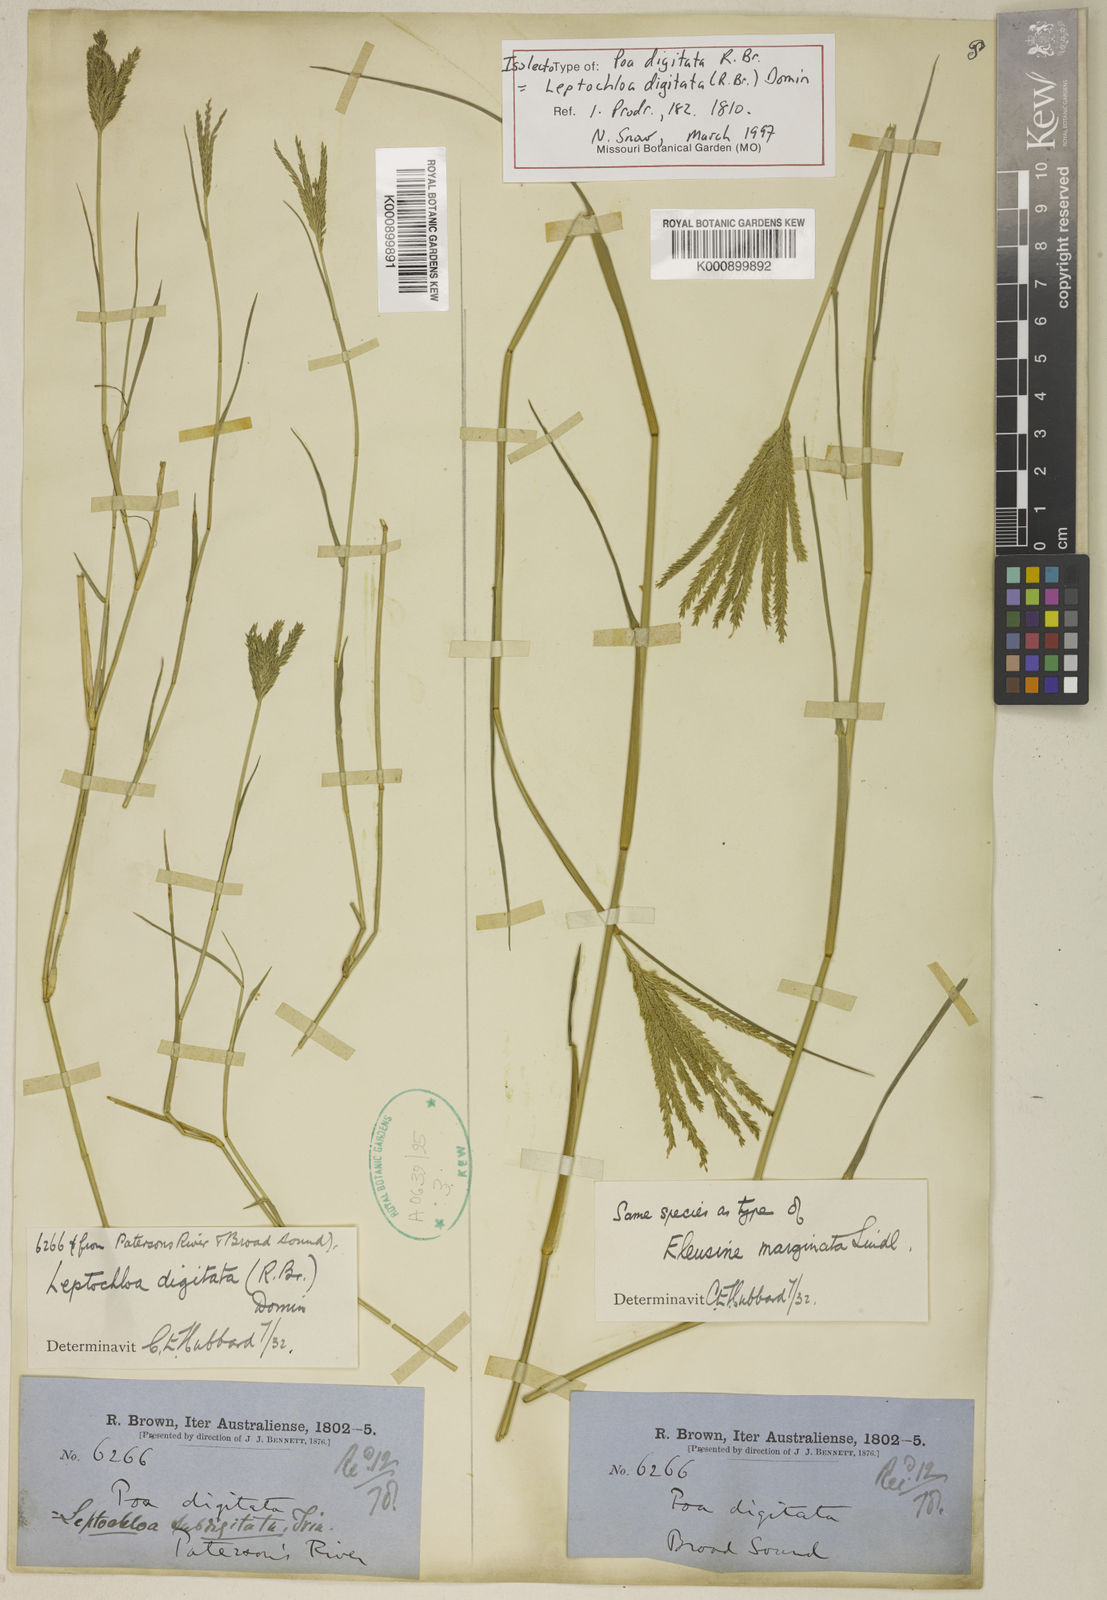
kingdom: Plantae
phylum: Tracheophyta
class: Liliopsida
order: Poales
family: Poaceae
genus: Leptochloa
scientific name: Leptochloa digitata
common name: Finger sprangletop
